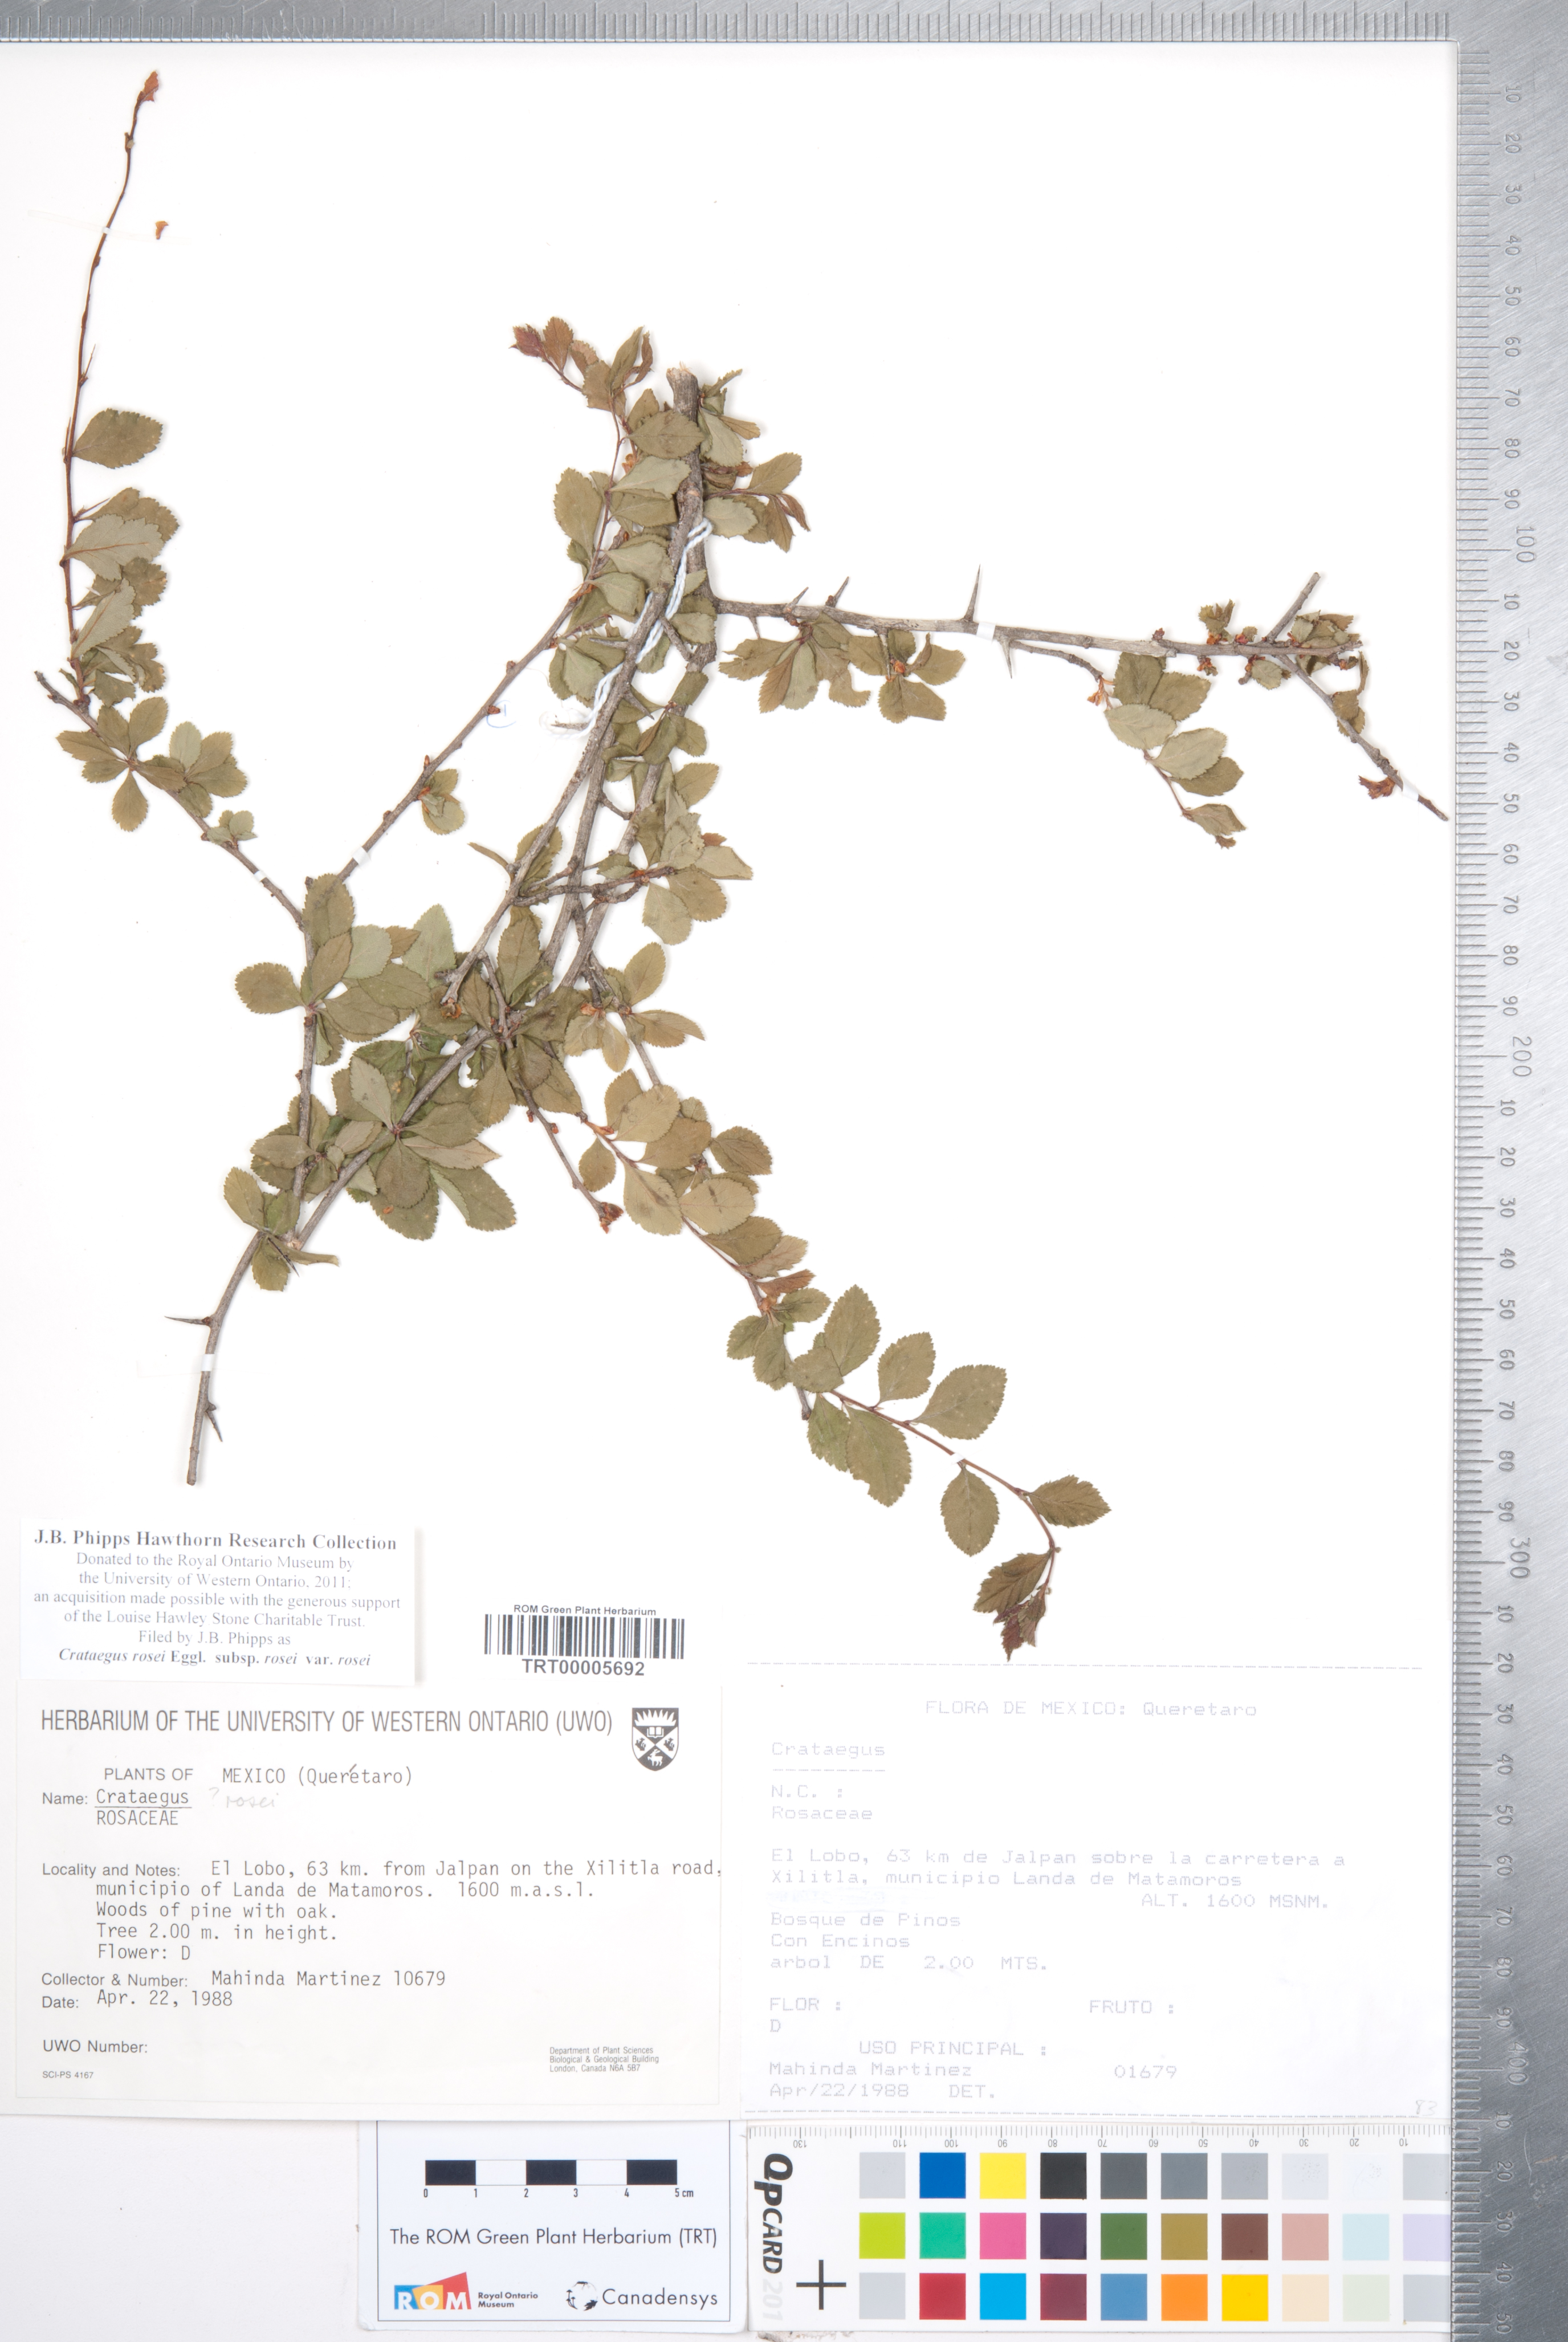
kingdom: Plantae
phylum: Tracheophyta
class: Magnoliopsida
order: Rosales
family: Rosaceae
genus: Crataegus
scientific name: Crataegus rosei
